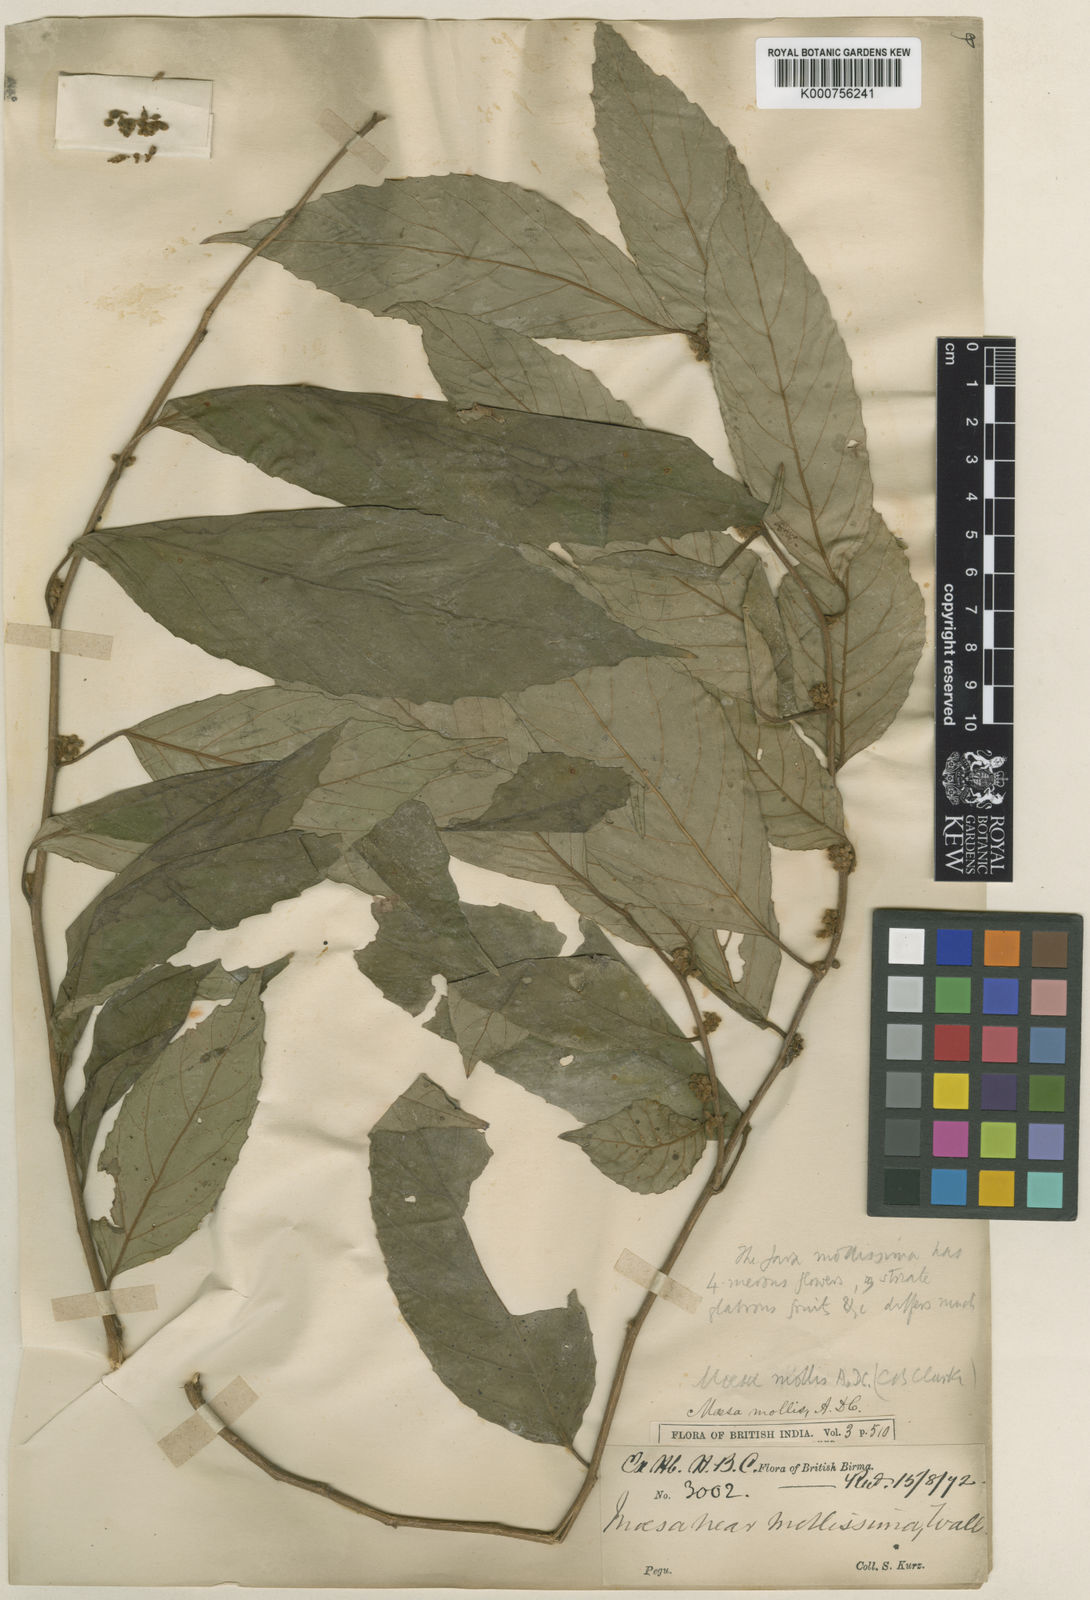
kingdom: Plantae
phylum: Tracheophyta
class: Magnoliopsida
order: Ericales
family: Primulaceae
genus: Maesa
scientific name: Maesa permollis
